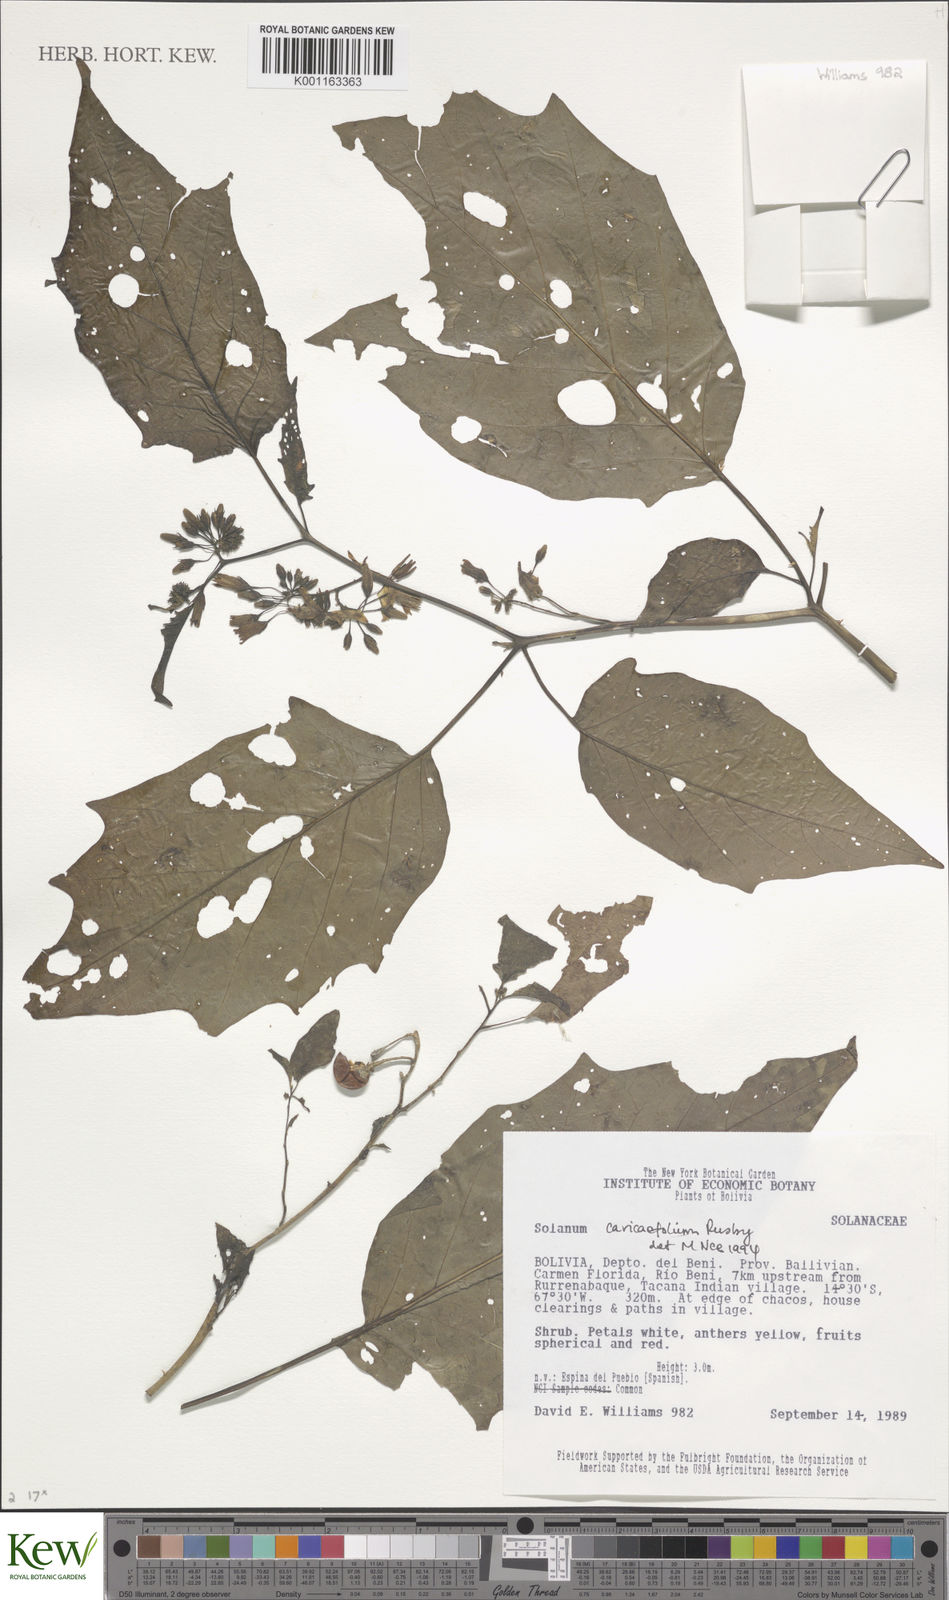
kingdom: Plantae
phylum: Tracheophyta
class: Magnoliopsida
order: Solanales
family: Solanaceae
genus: Solanum
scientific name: Solanum caricaefolium
